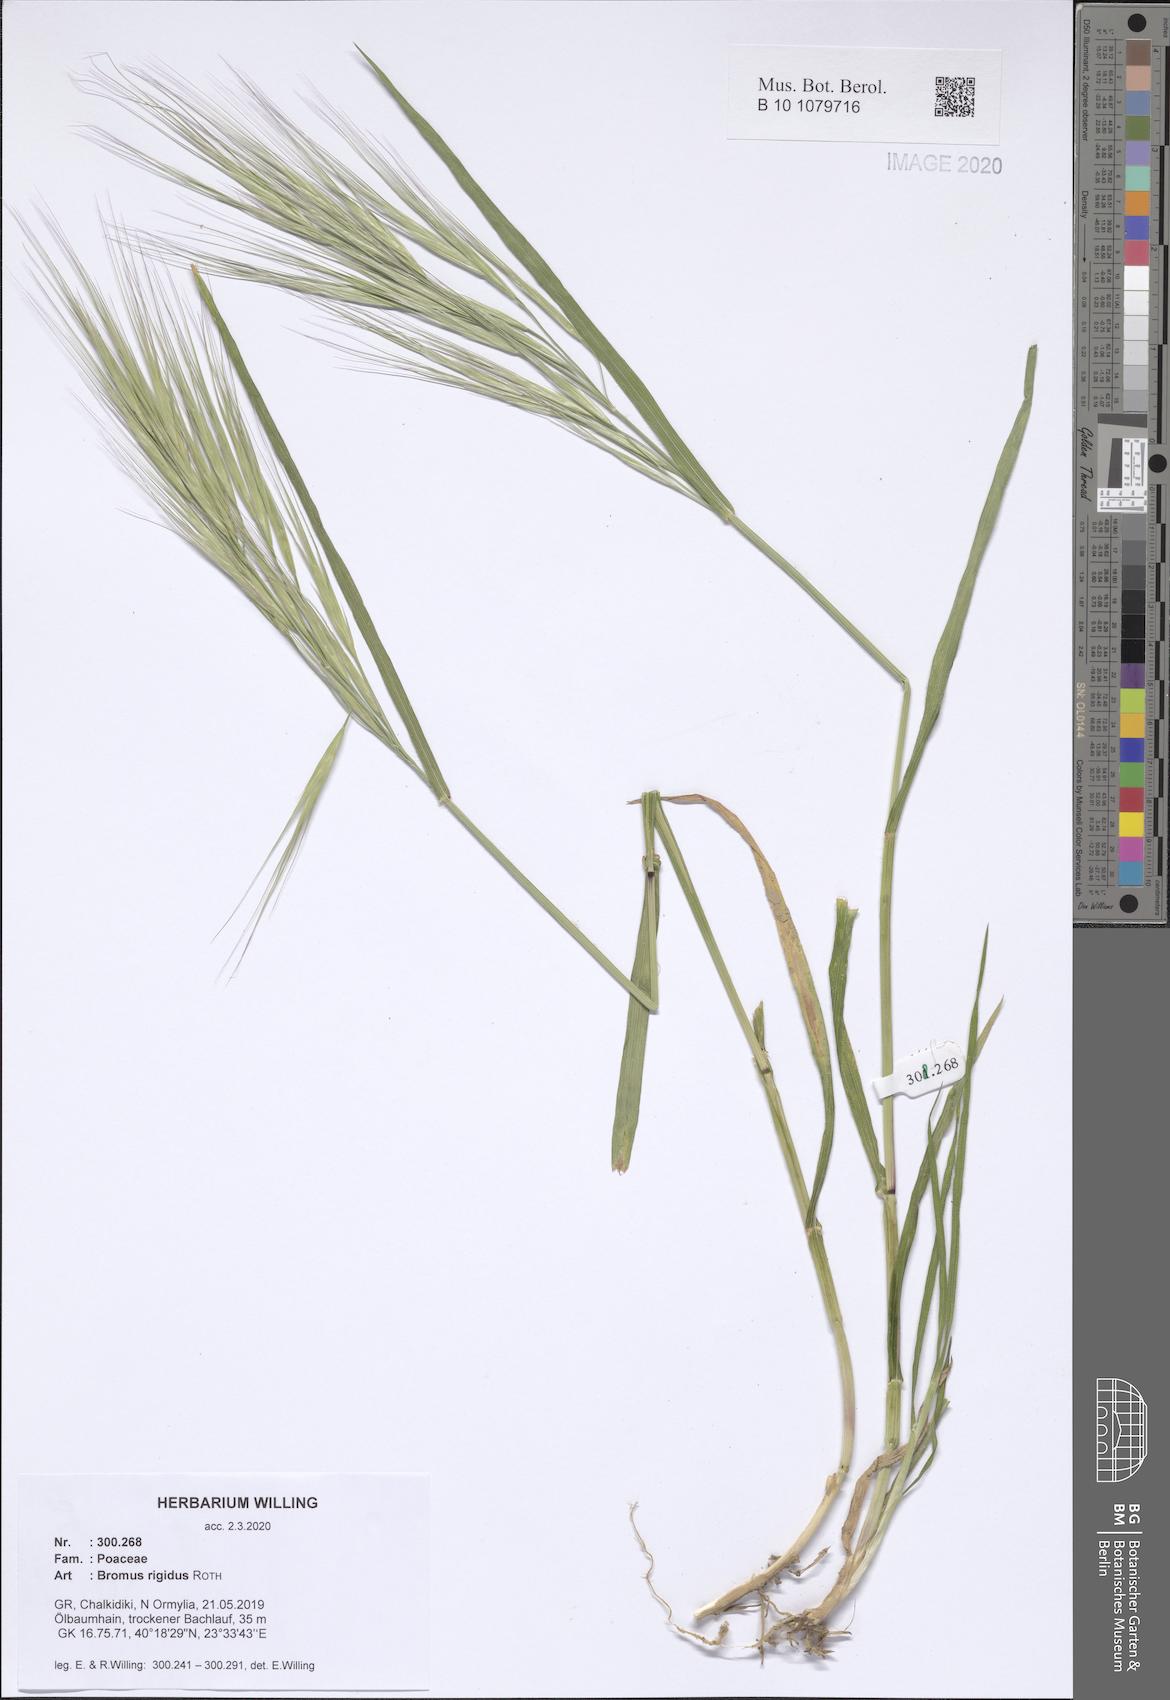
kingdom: Plantae
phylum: Tracheophyta
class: Liliopsida
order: Poales
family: Poaceae
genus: Bromus
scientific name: Bromus rigidus
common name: Ripgut brome
